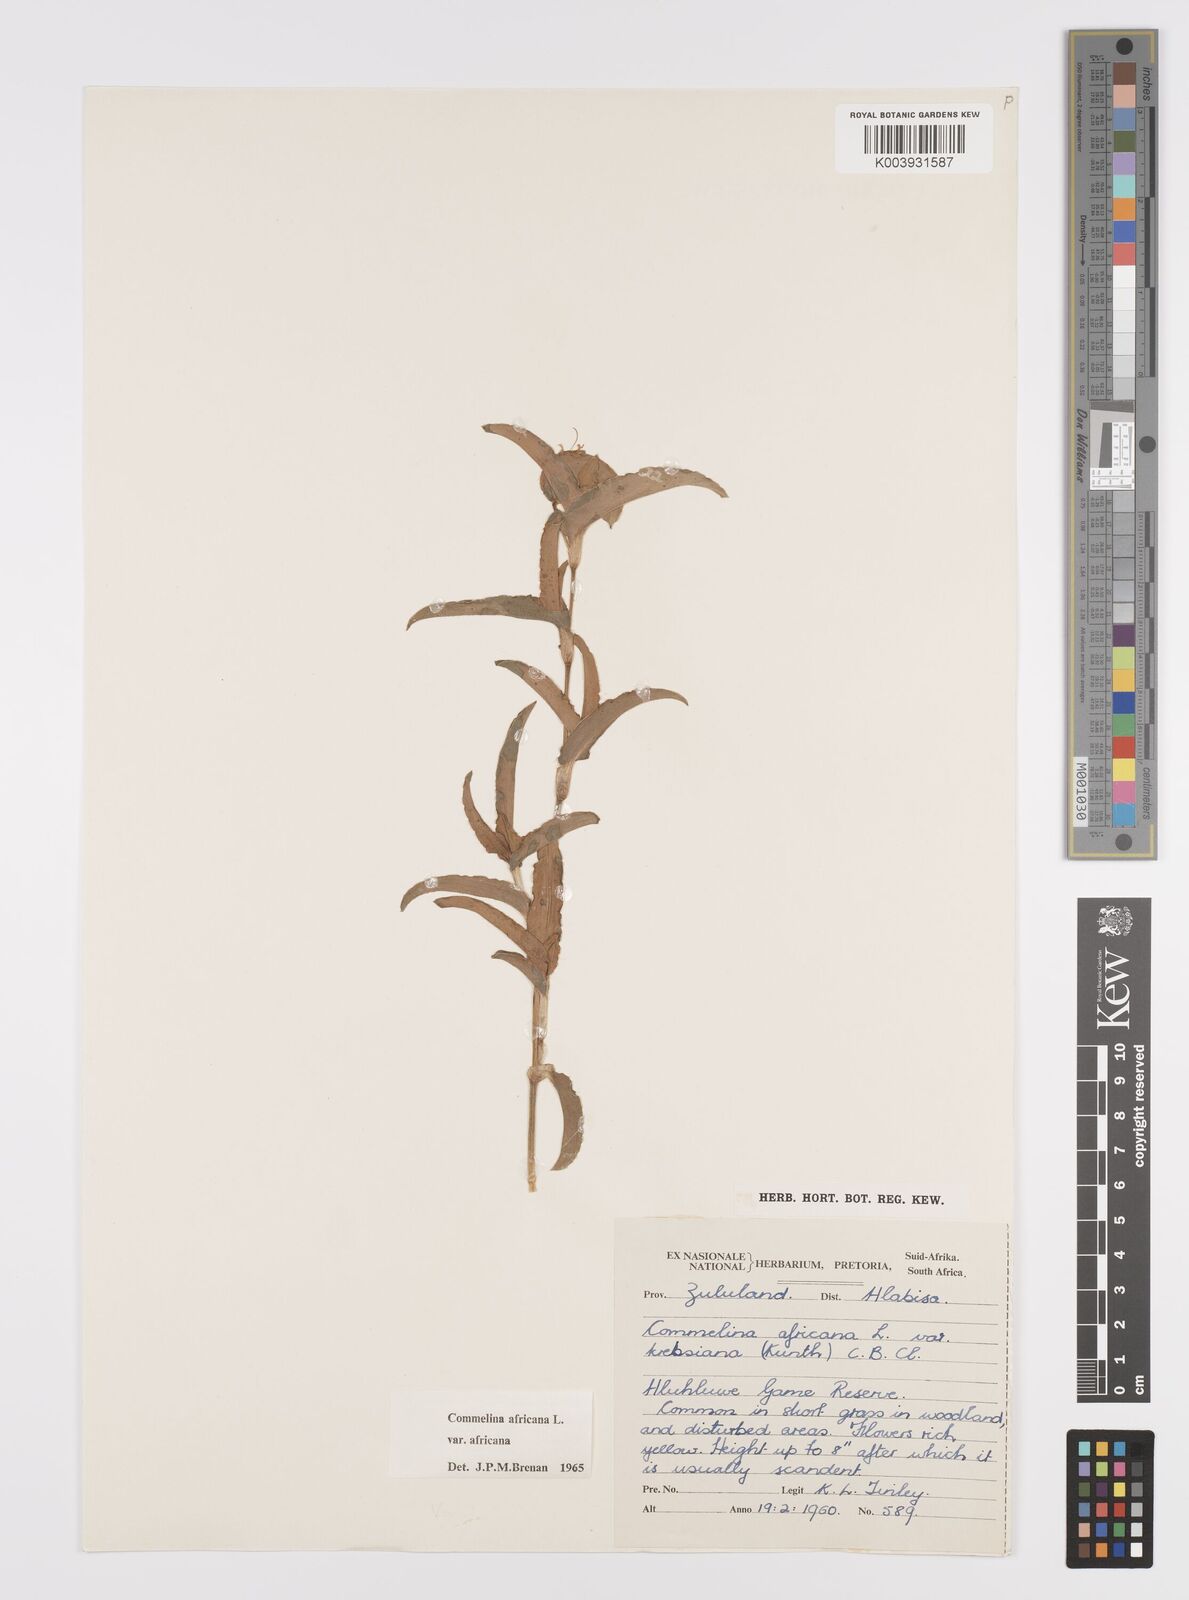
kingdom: Plantae
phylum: Tracheophyta
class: Liliopsida
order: Commelinales
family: Commelinaceae
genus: Commelina
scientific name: Commelina africana
